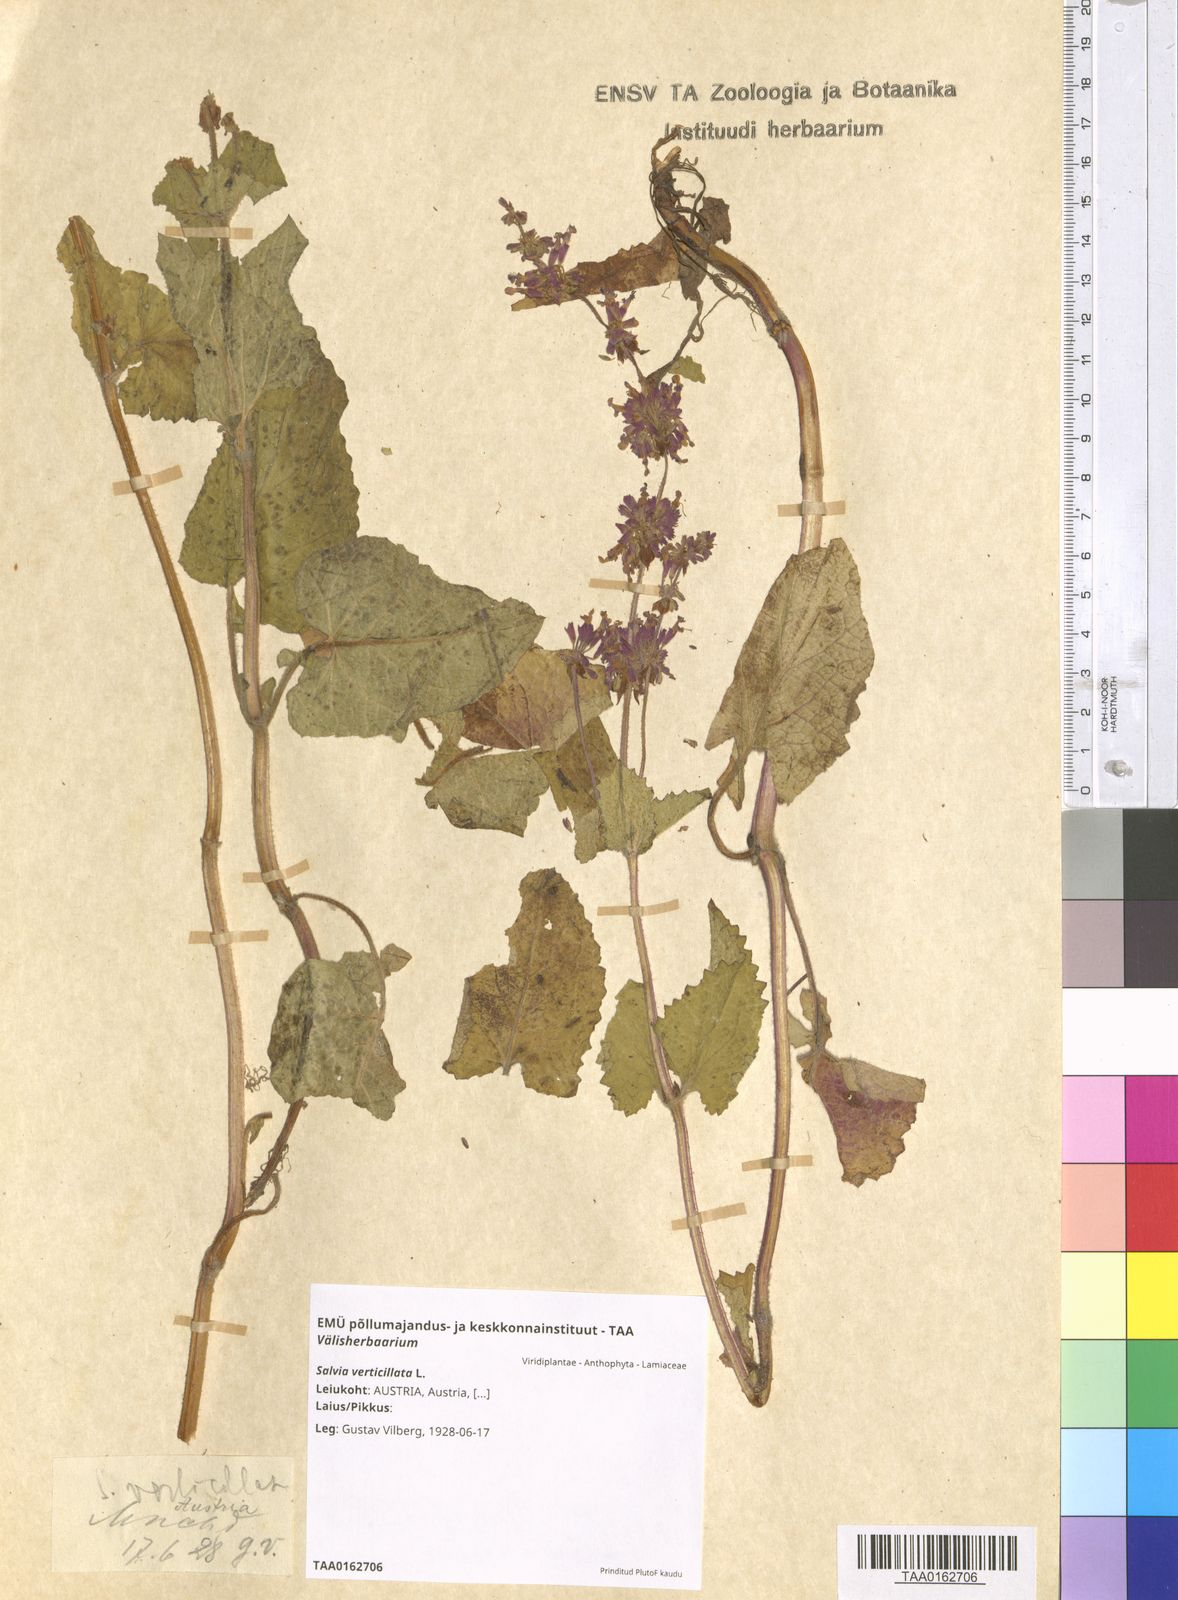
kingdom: Plantae
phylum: Tracheophyta
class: Magnoliopsida
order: Lamiales
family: Lamiaceae
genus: Salvia
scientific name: Salvia verticillata
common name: Whorled clary
